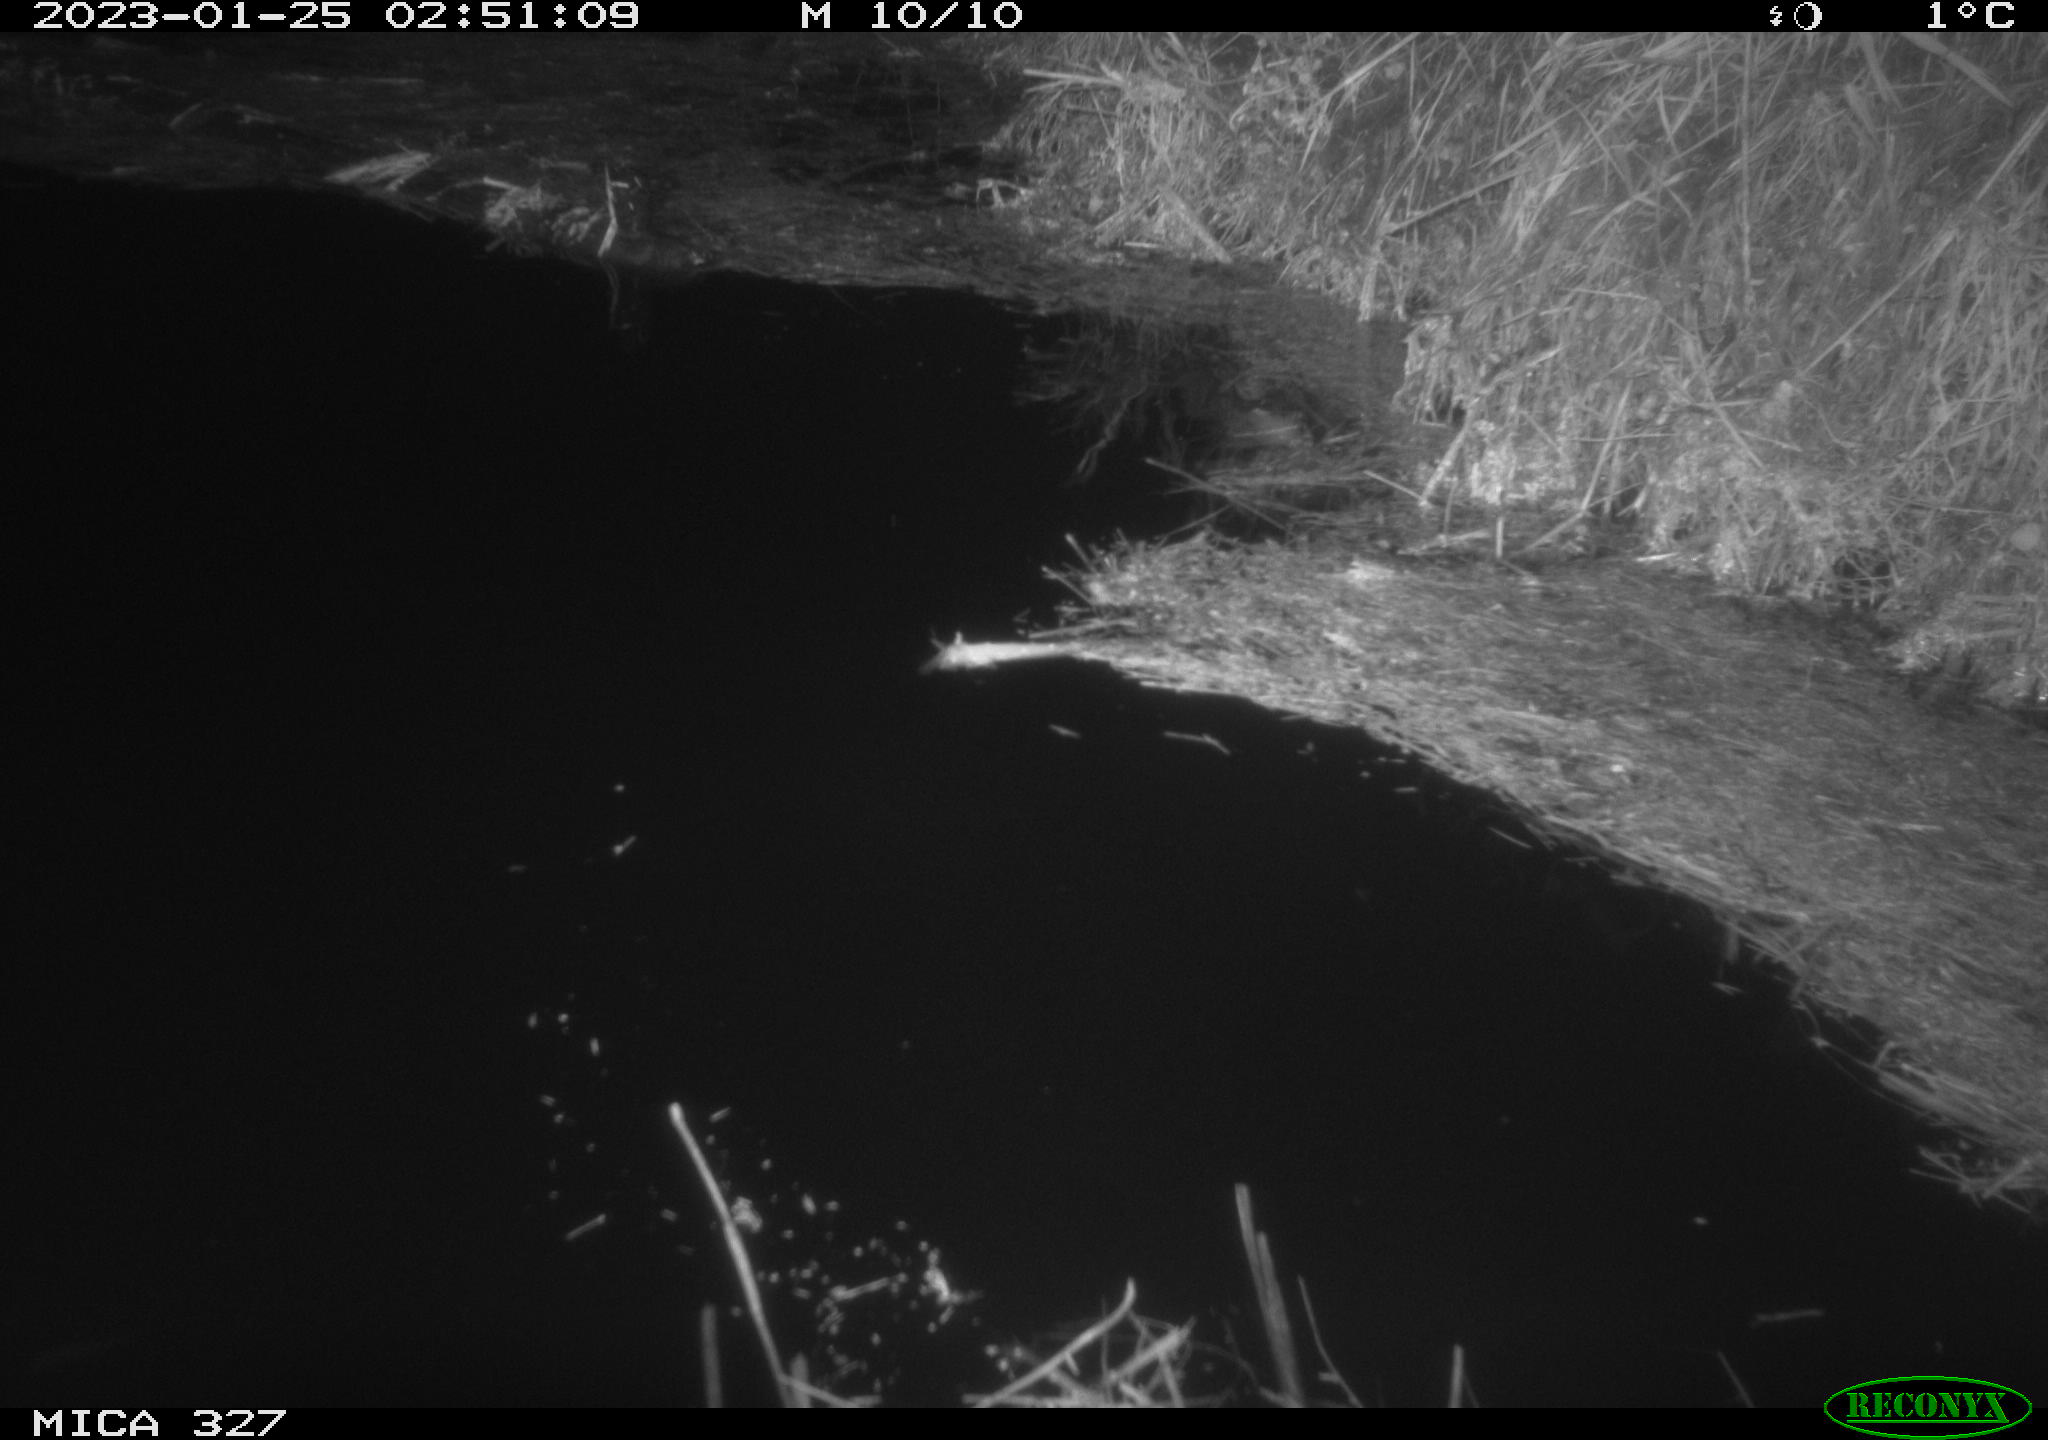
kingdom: Animalia
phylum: Chordata
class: Mammalia
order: Rodentia
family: Cricetidae
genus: Ondatra
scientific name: Ondatra zibethicus
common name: Muskrat
